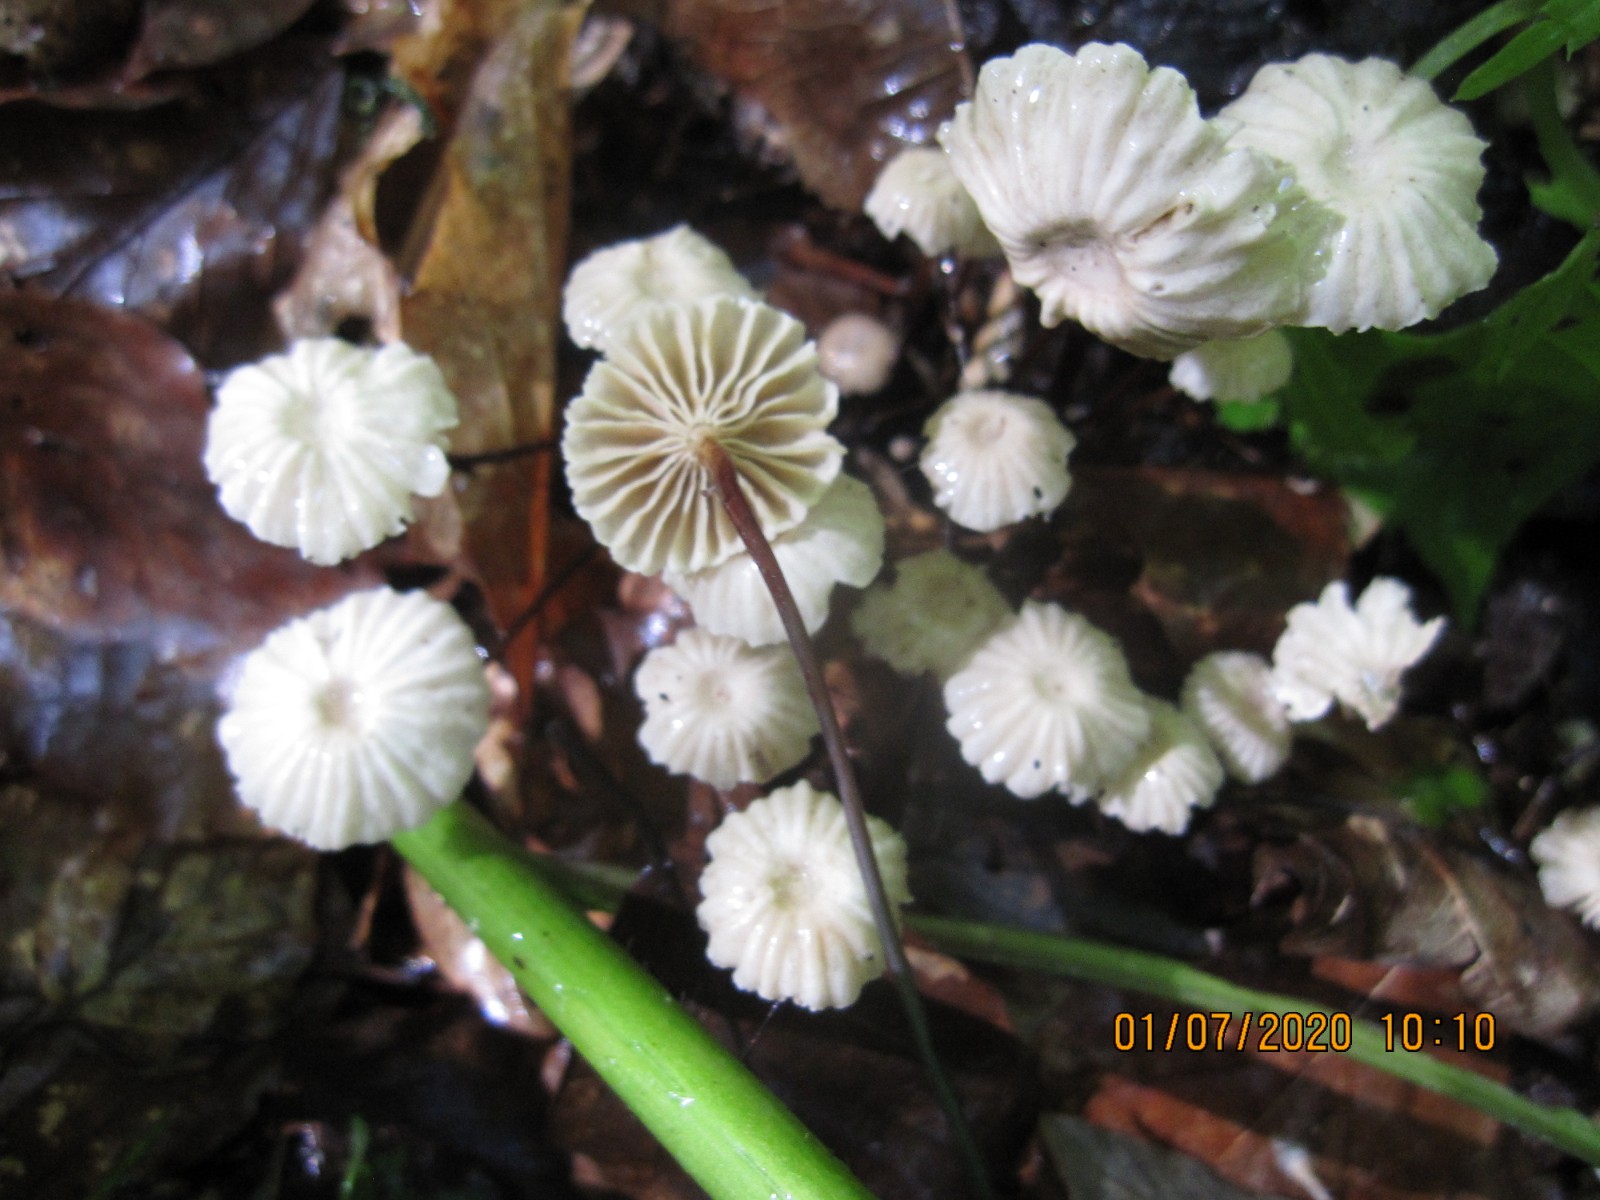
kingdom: Fungi
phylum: Basidiomycota
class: Agaricomycetes
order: Agaricales
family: Marasmiaceae
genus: Marasmius
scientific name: Marasmius rotula
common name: hjul-bruskhat
